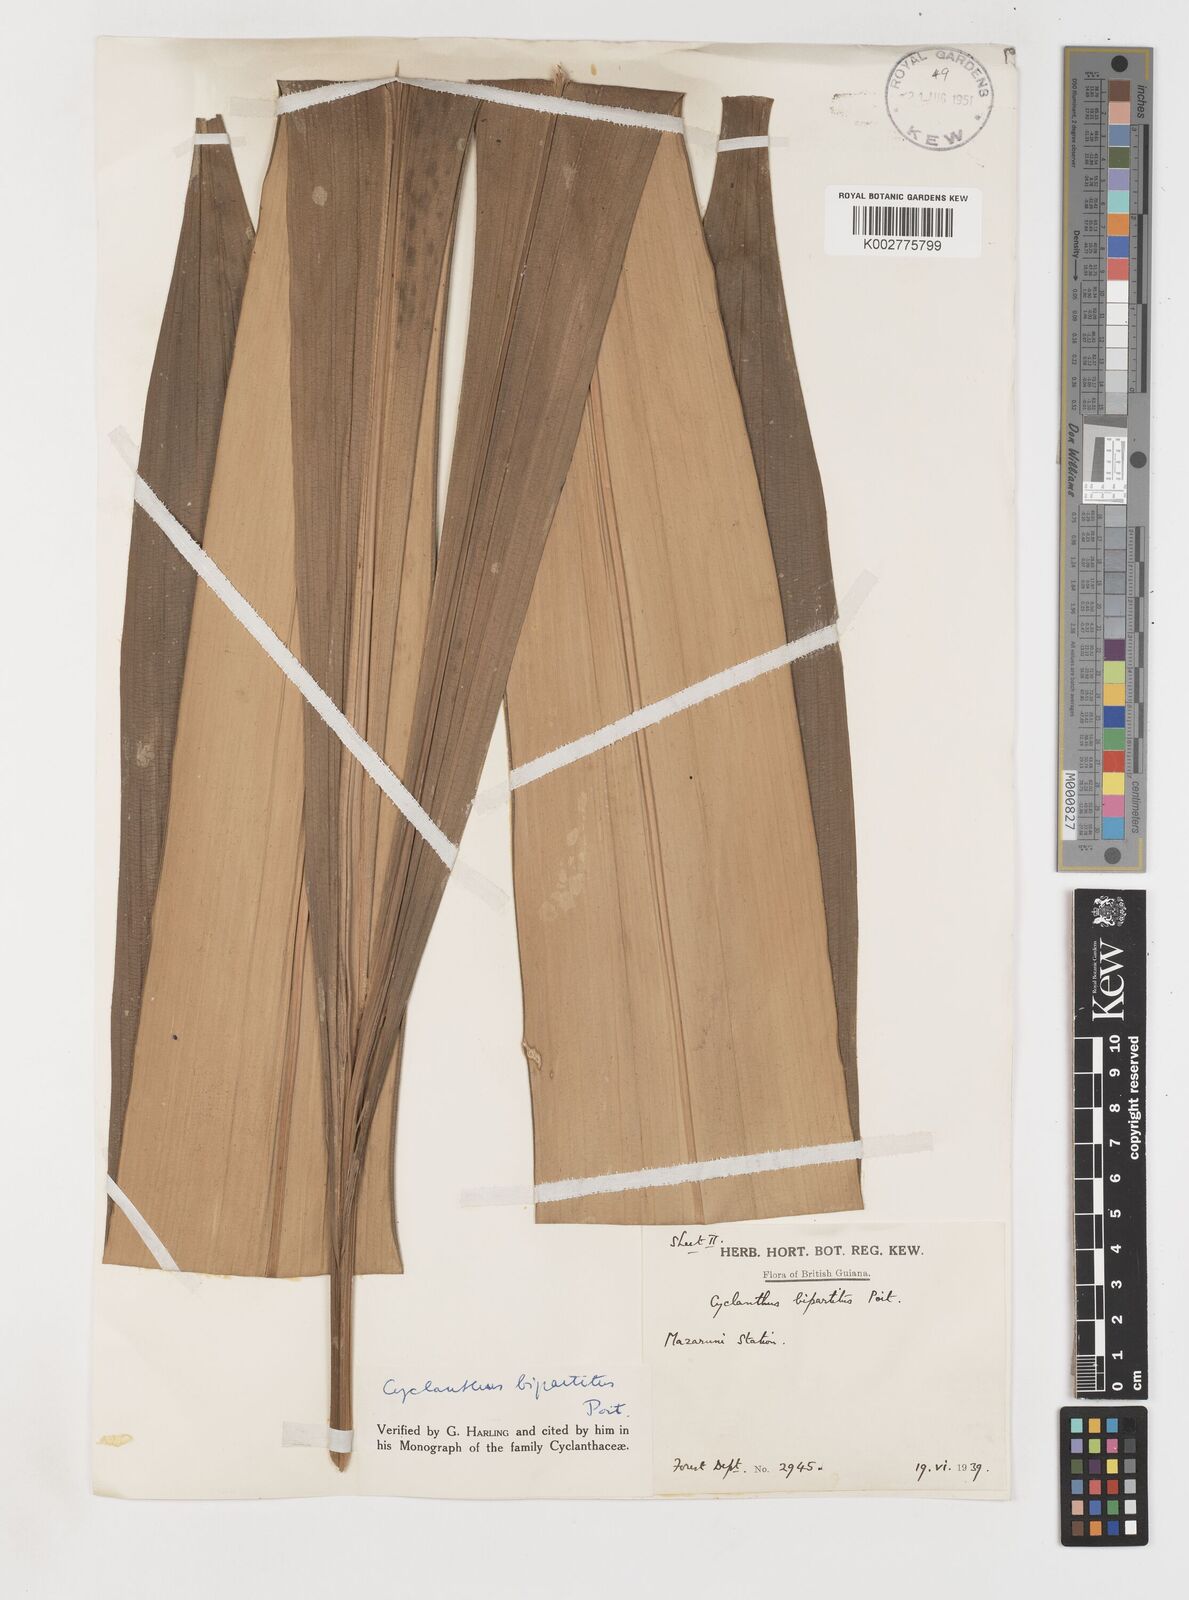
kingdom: Plantae
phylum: Tracheophyta
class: Liliopsida
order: Pandanales
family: Cyclanthaceae
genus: Cyclanthus
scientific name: Cyclanthus bipartitus
